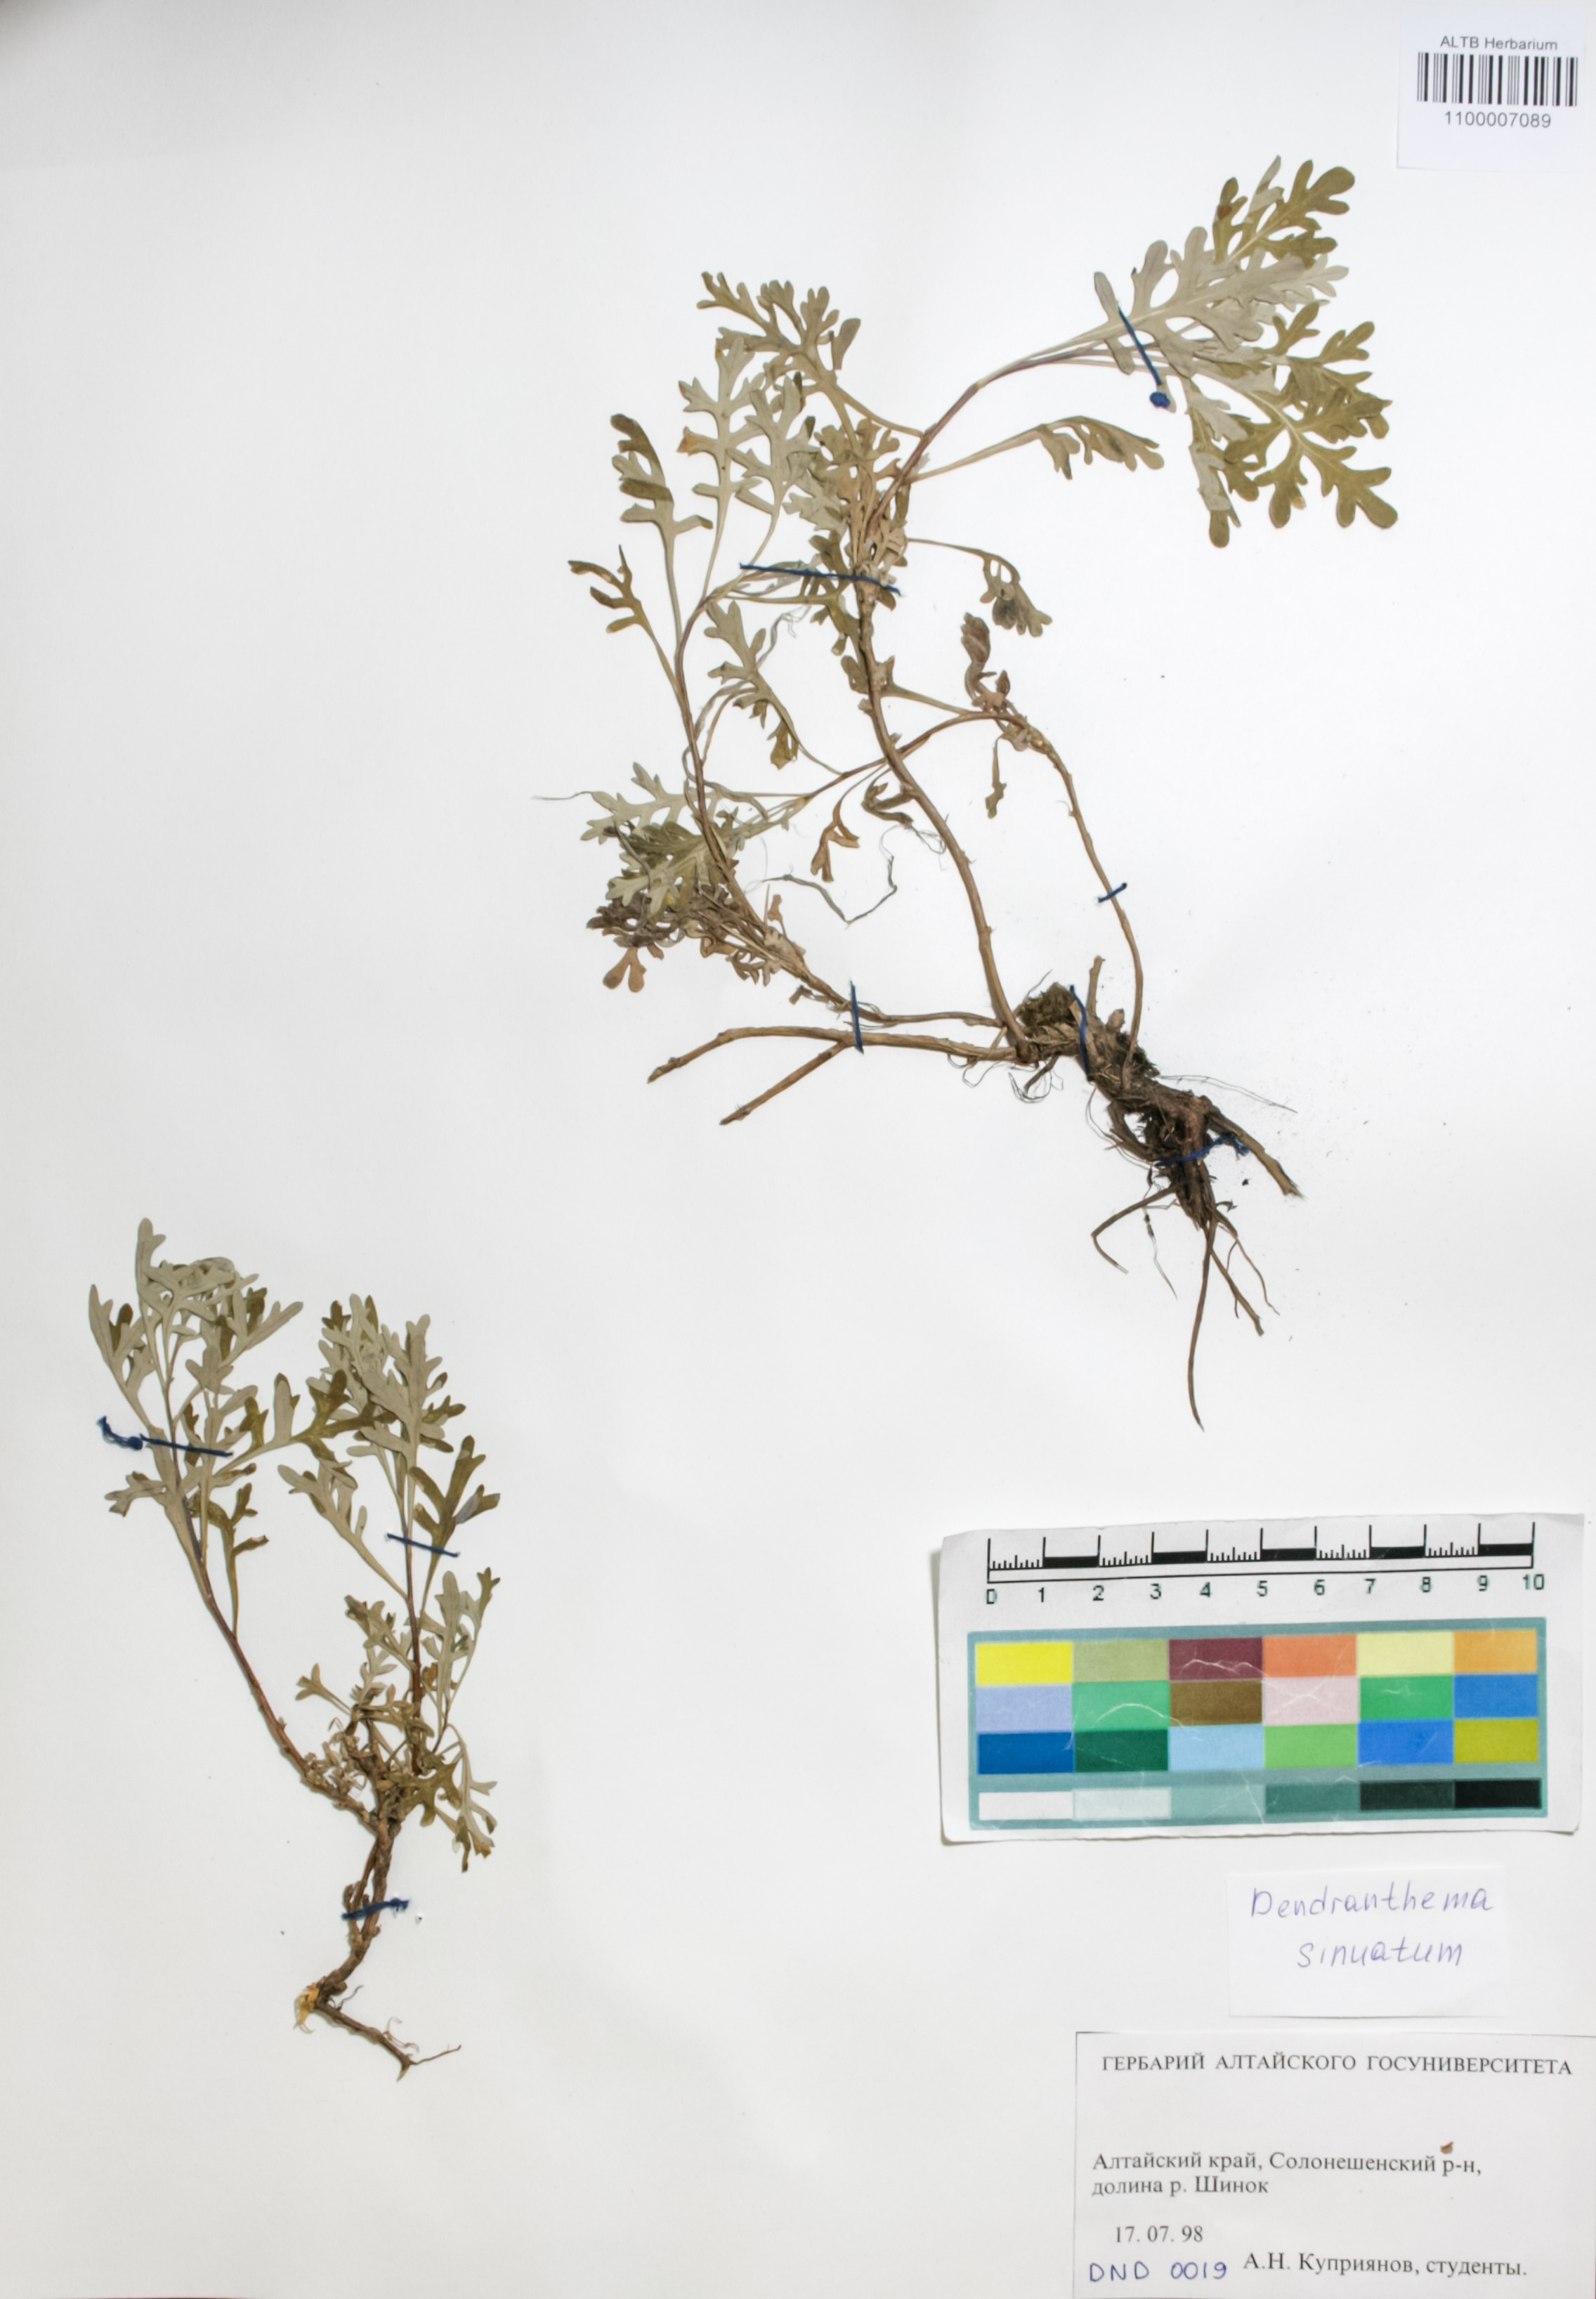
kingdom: Plantae
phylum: Tracheophyta
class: Magnoliopsida
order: Asterales
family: Asteraceae
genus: Chrysanthemum
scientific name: Chrysanthemum sinuatum
